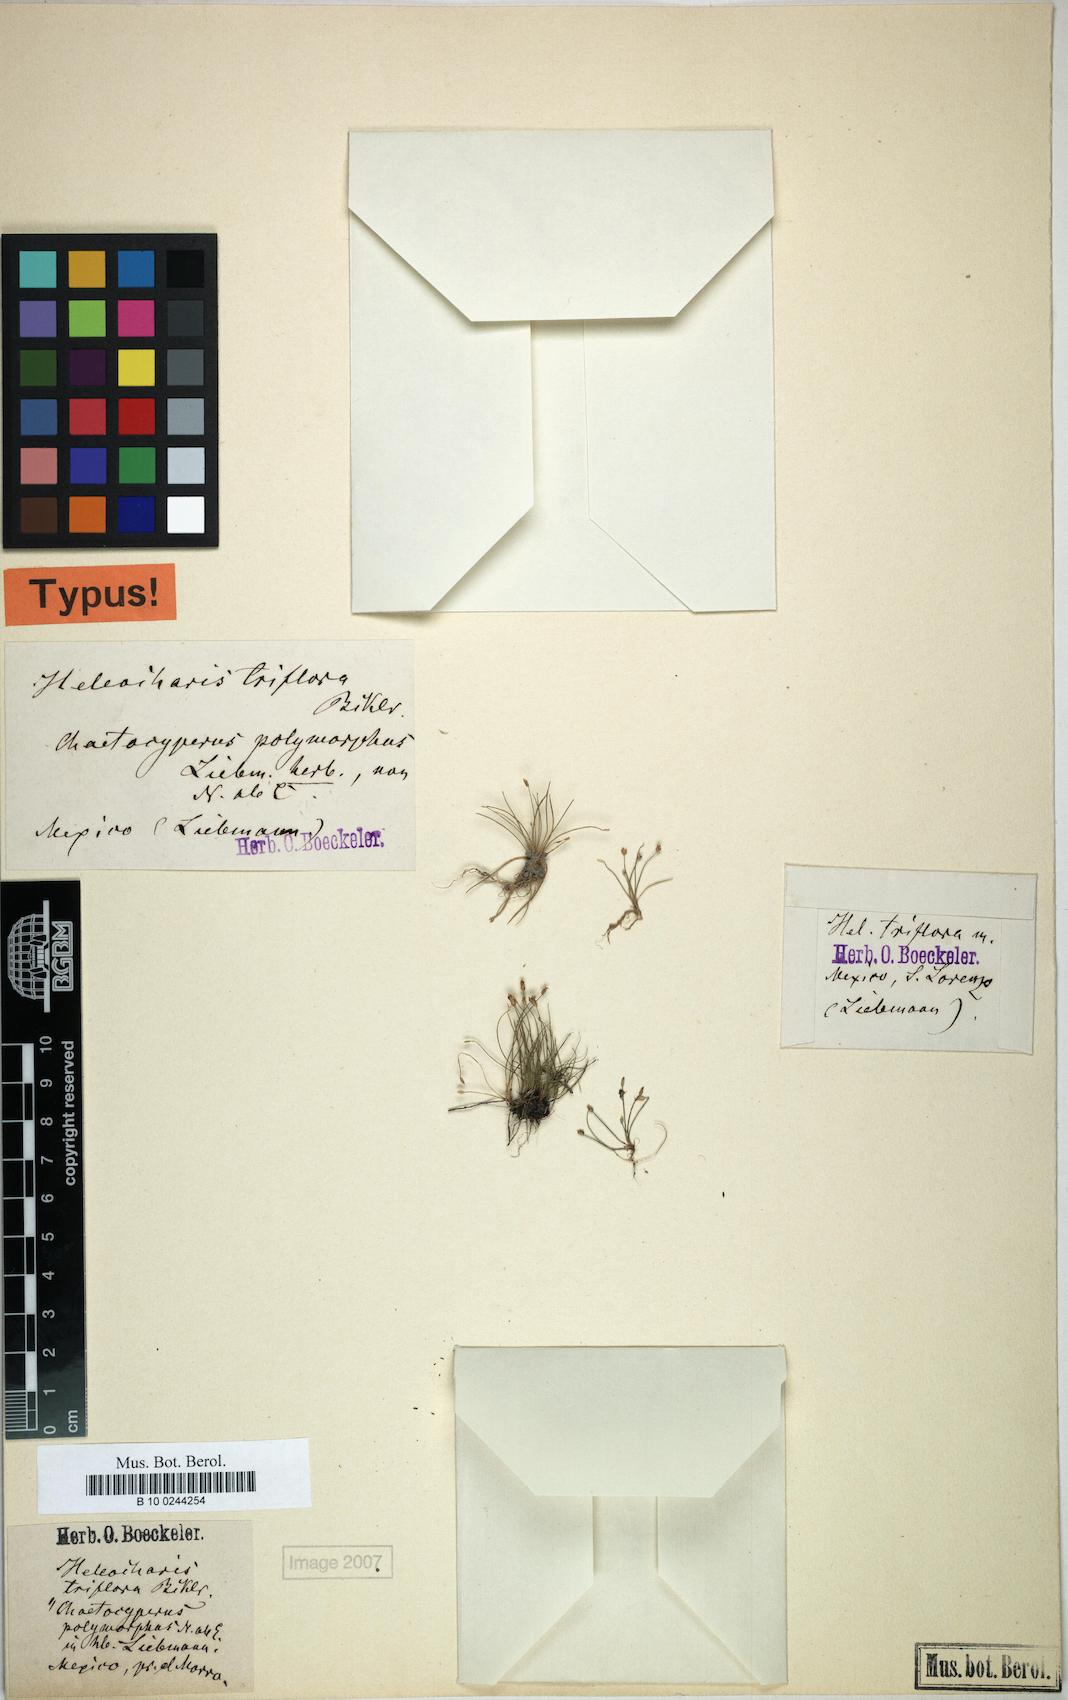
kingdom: Plantae
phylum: Tracheophyta
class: Liliopsida
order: Poales
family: Cyperaceae
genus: Eleocharis
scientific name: Eleocharis retroflexa
